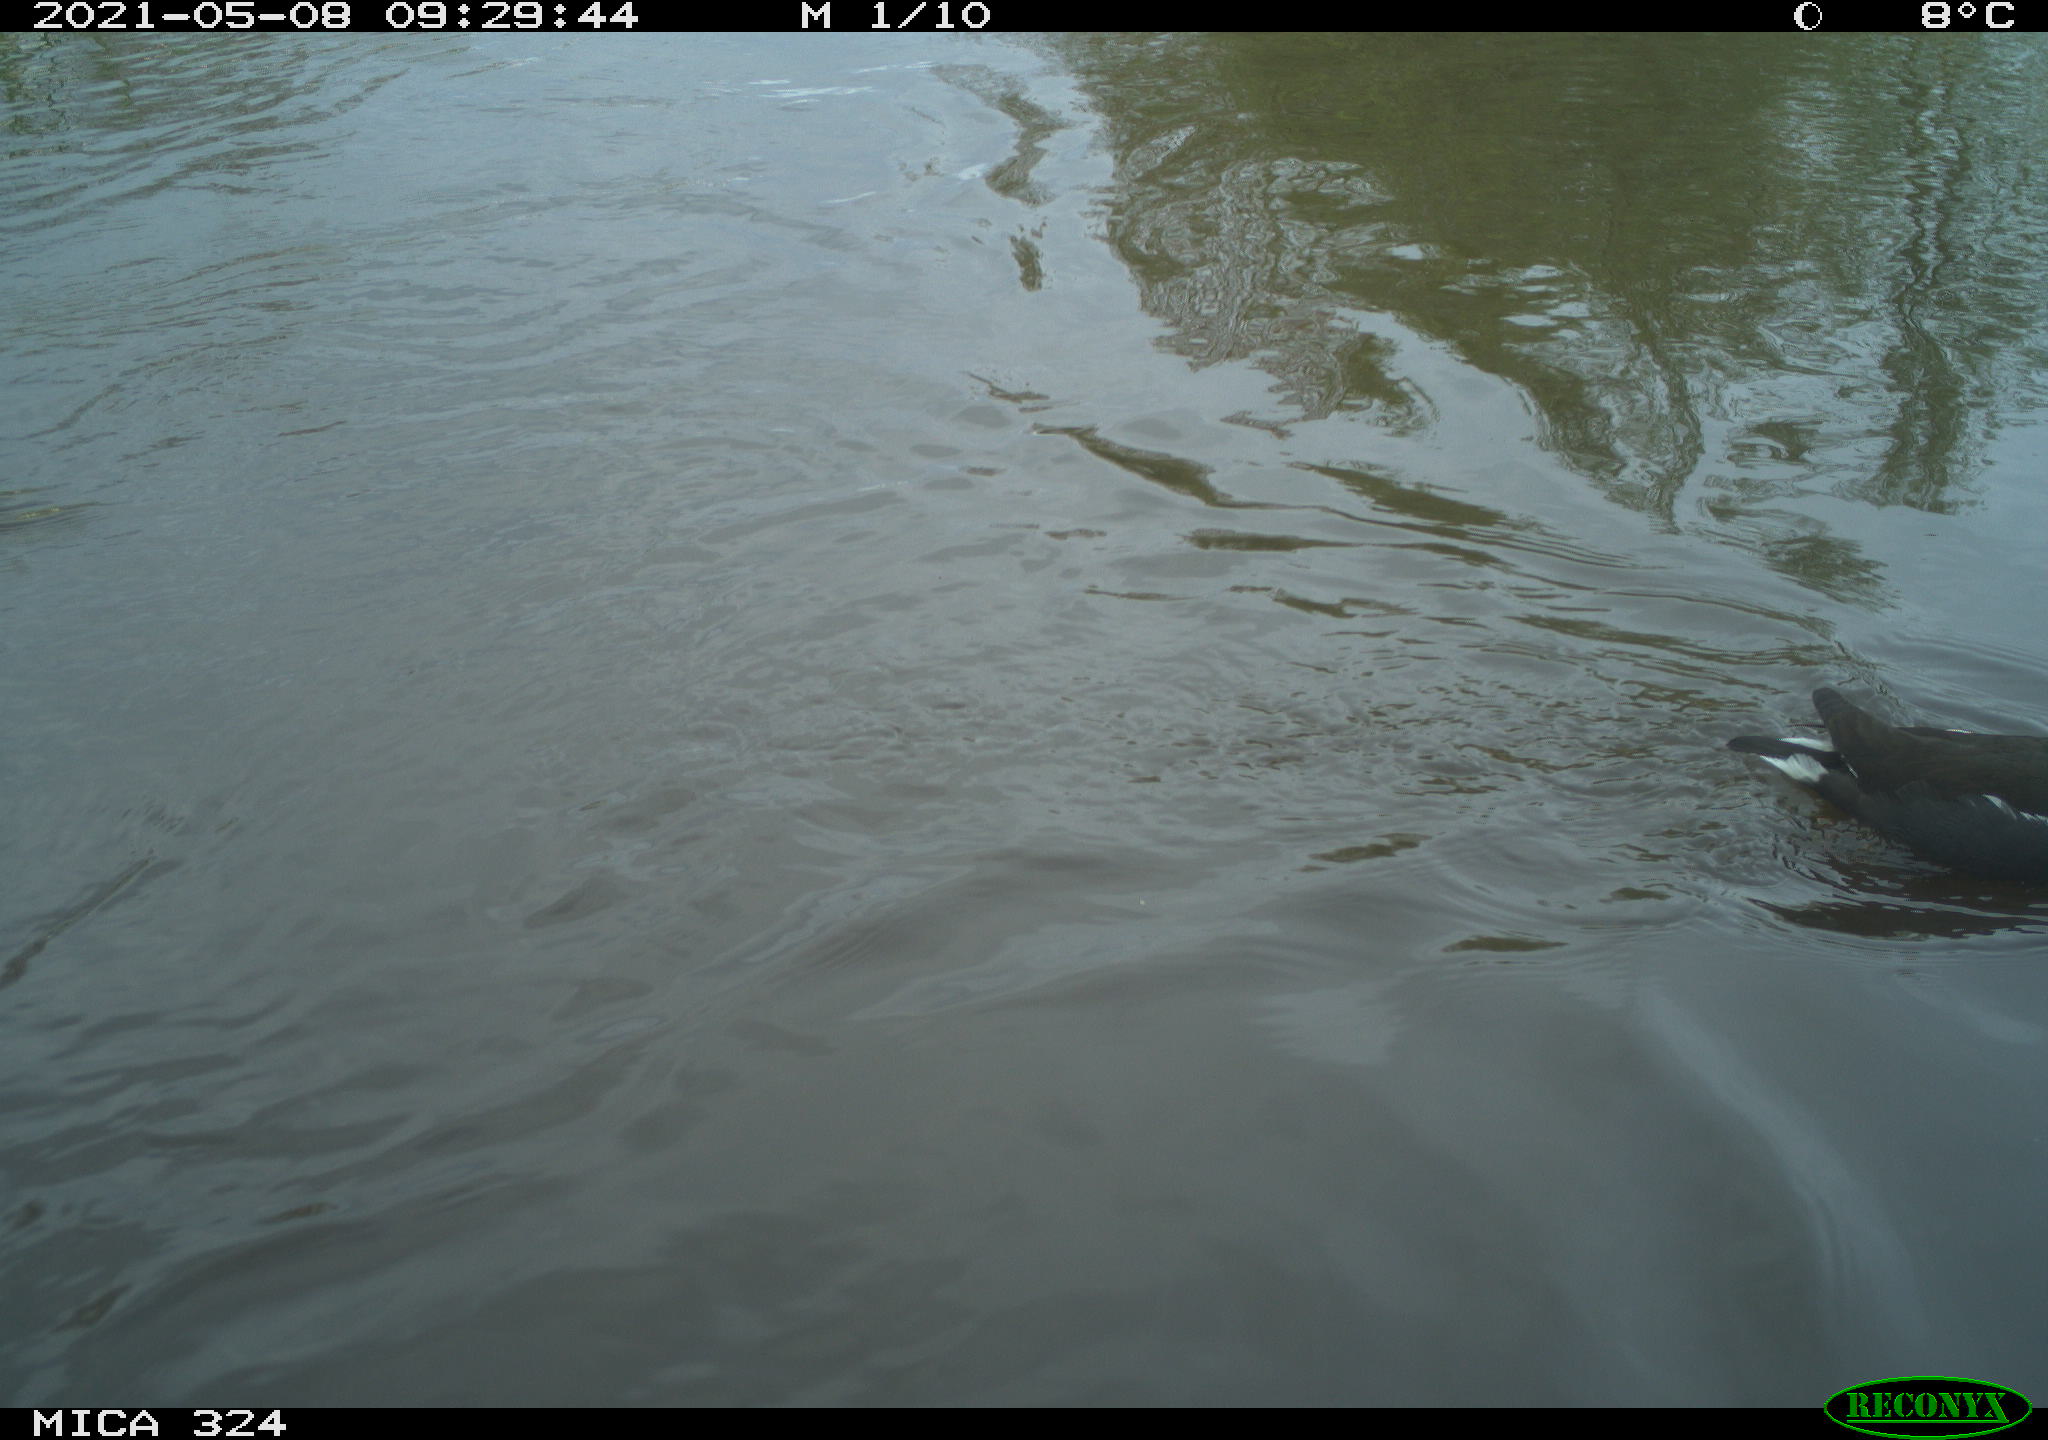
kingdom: Animalia
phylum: Chordata
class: Aves
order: Gruiformes
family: Rallidae
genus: Gallinula
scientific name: Gallinula chloropus
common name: Common moorhen
